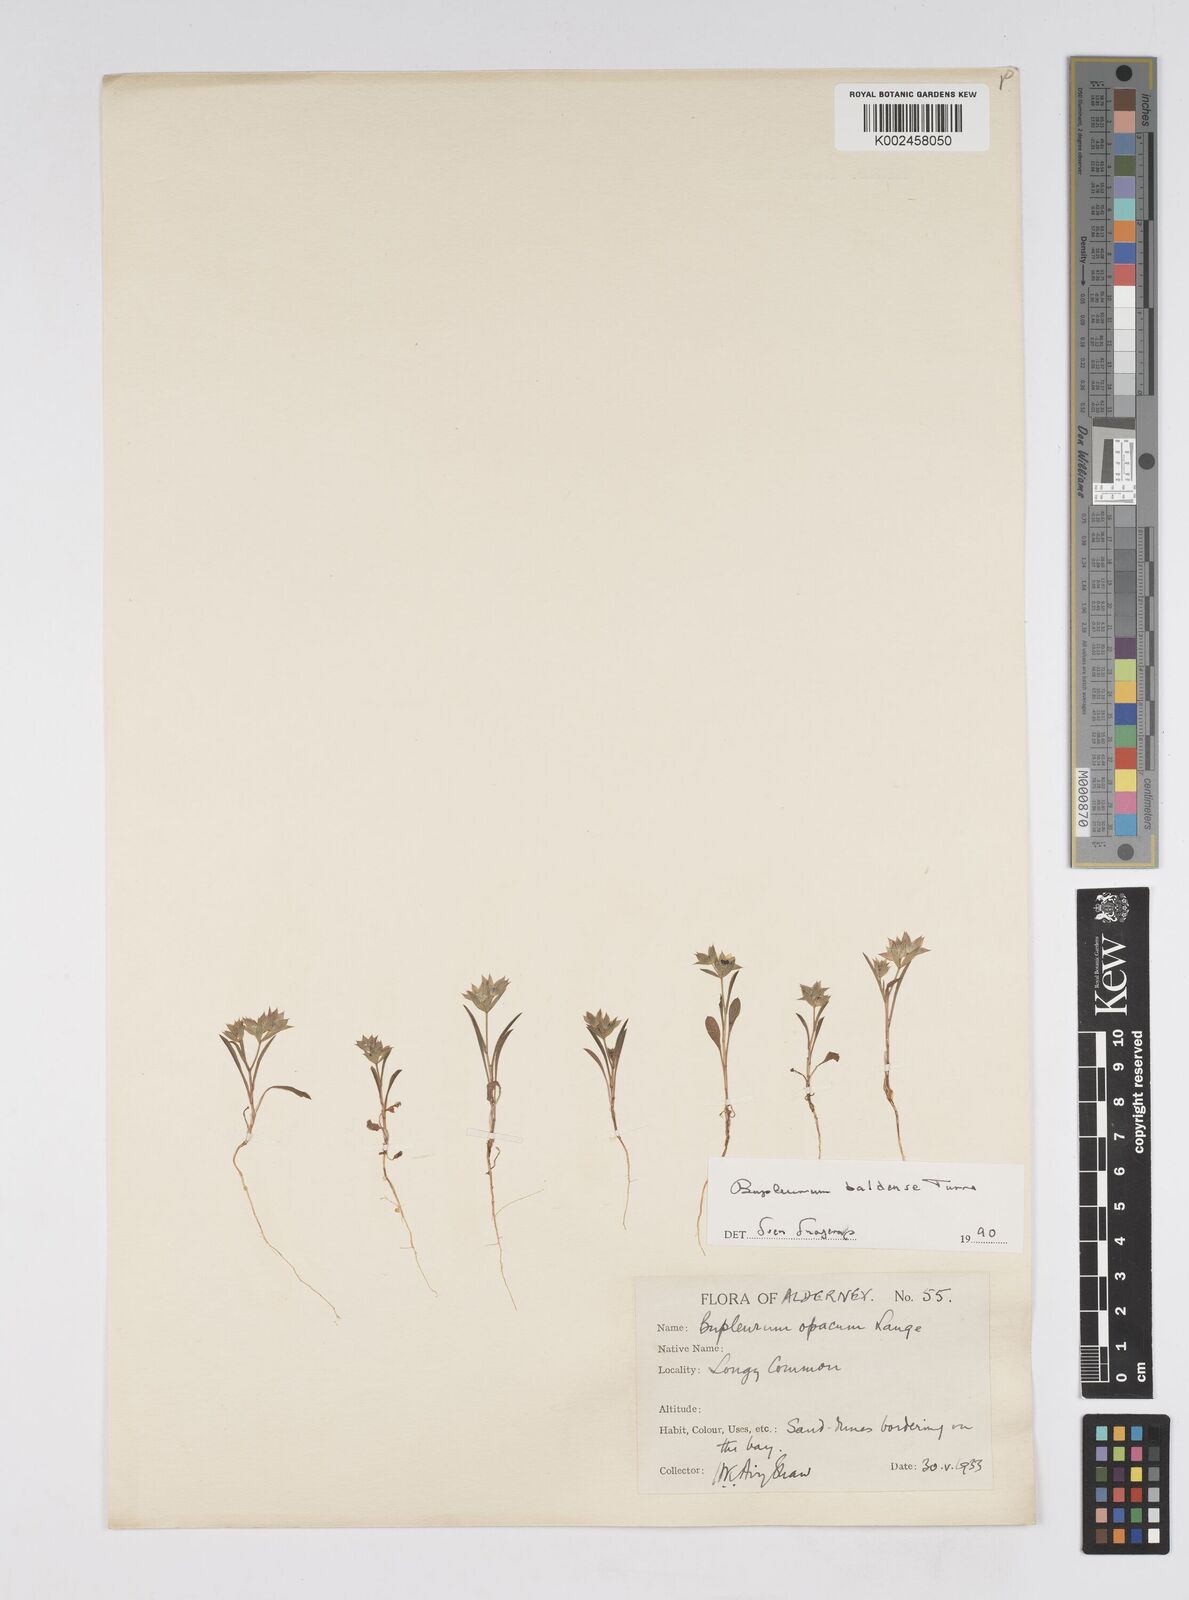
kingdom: Plantae
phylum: Tracheophyta
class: Magnoliopsida
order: Apiales
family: Apiaceae
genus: Bupleurum
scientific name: Bupleurum baldense
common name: Small hare's-ear
